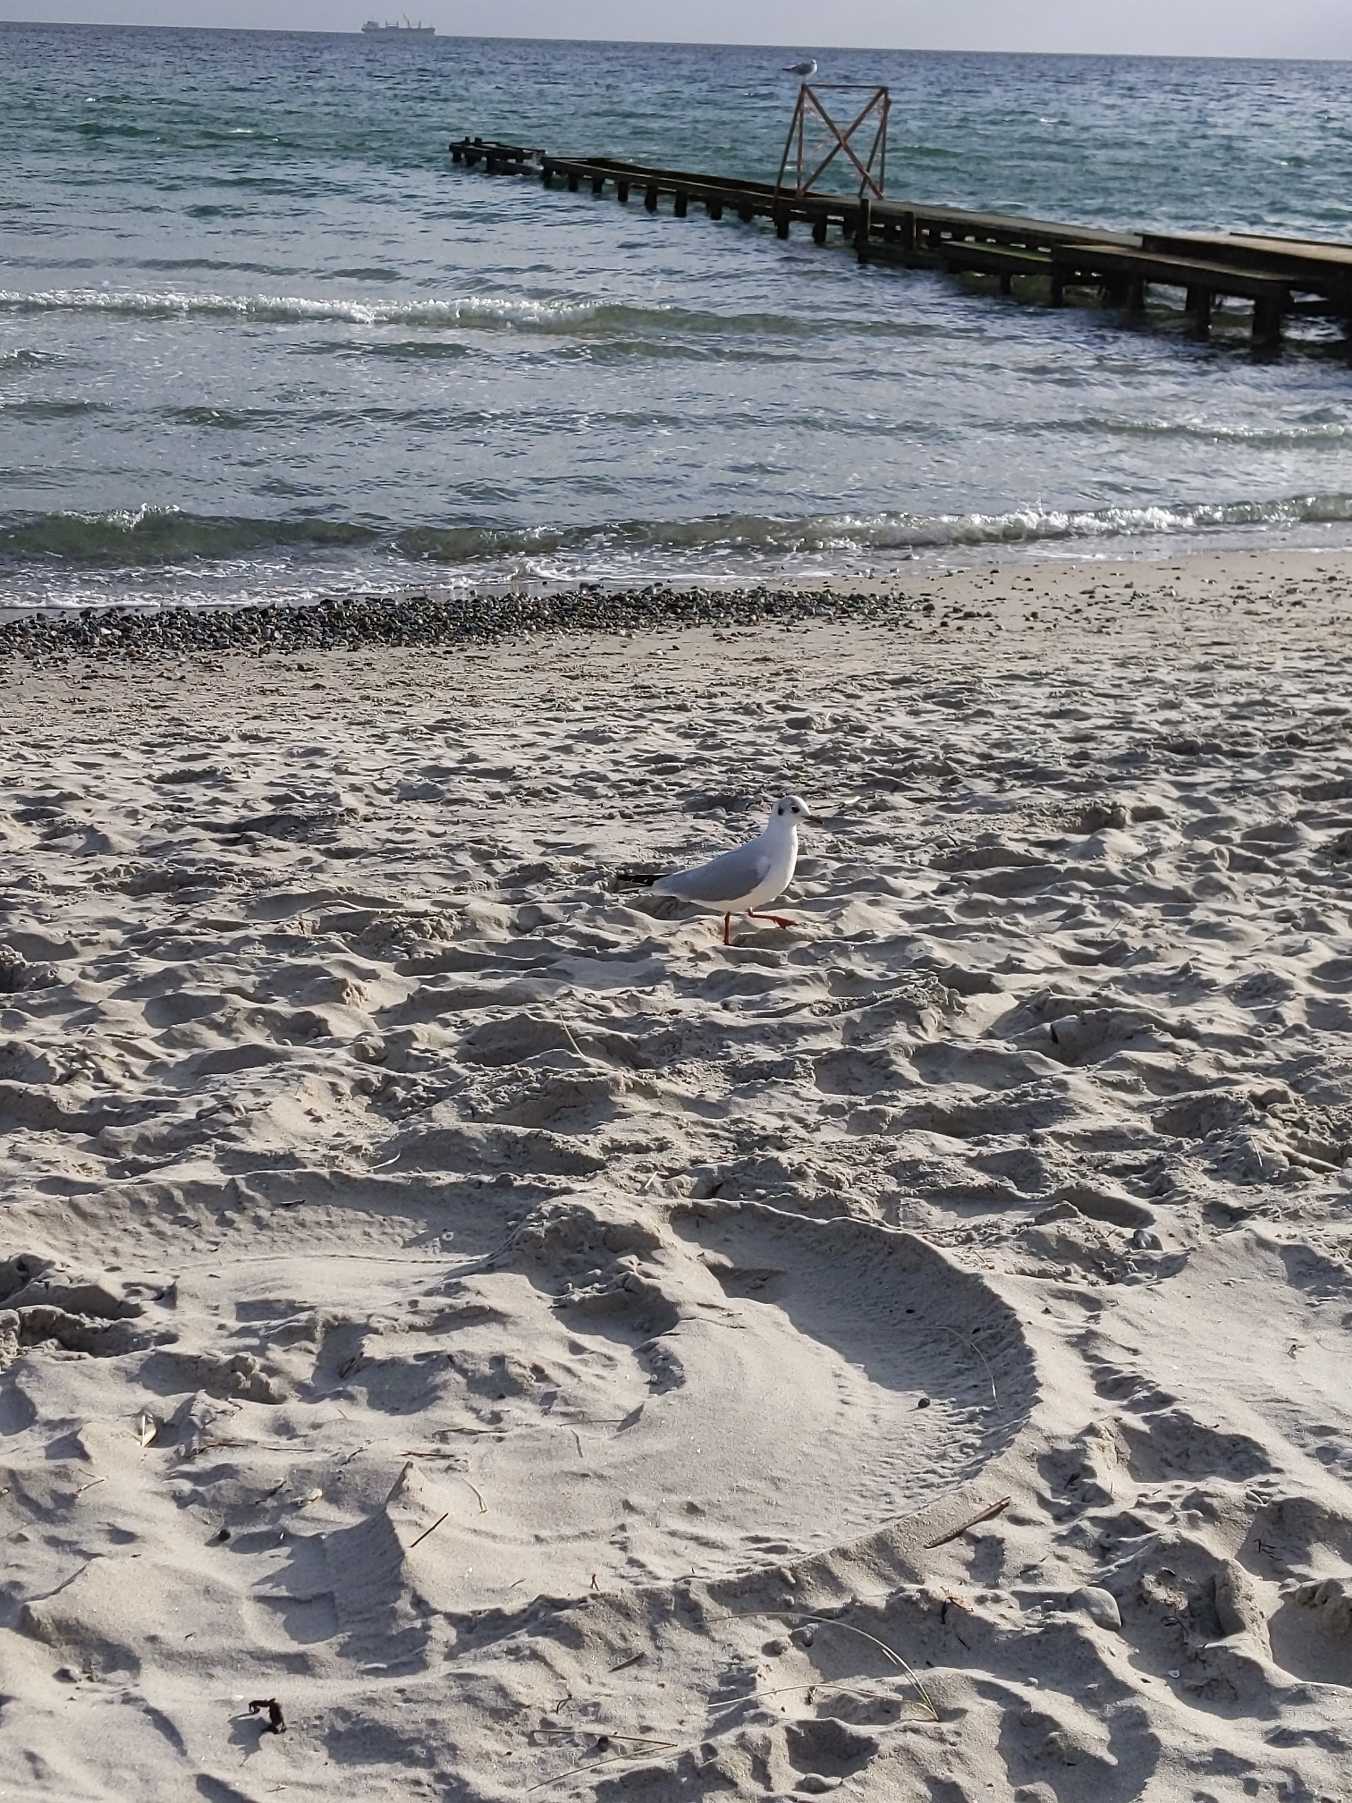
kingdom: Animalia
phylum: Chordata
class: Aves
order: Charadriiformes
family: Laridae
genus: Chroicocephalus
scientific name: Chroicocephalus ridibundus
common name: Hættemåge
